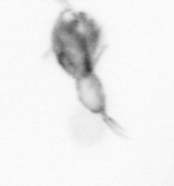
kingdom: Animalia
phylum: Arthropoda
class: Copepoda
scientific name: Copepoda
